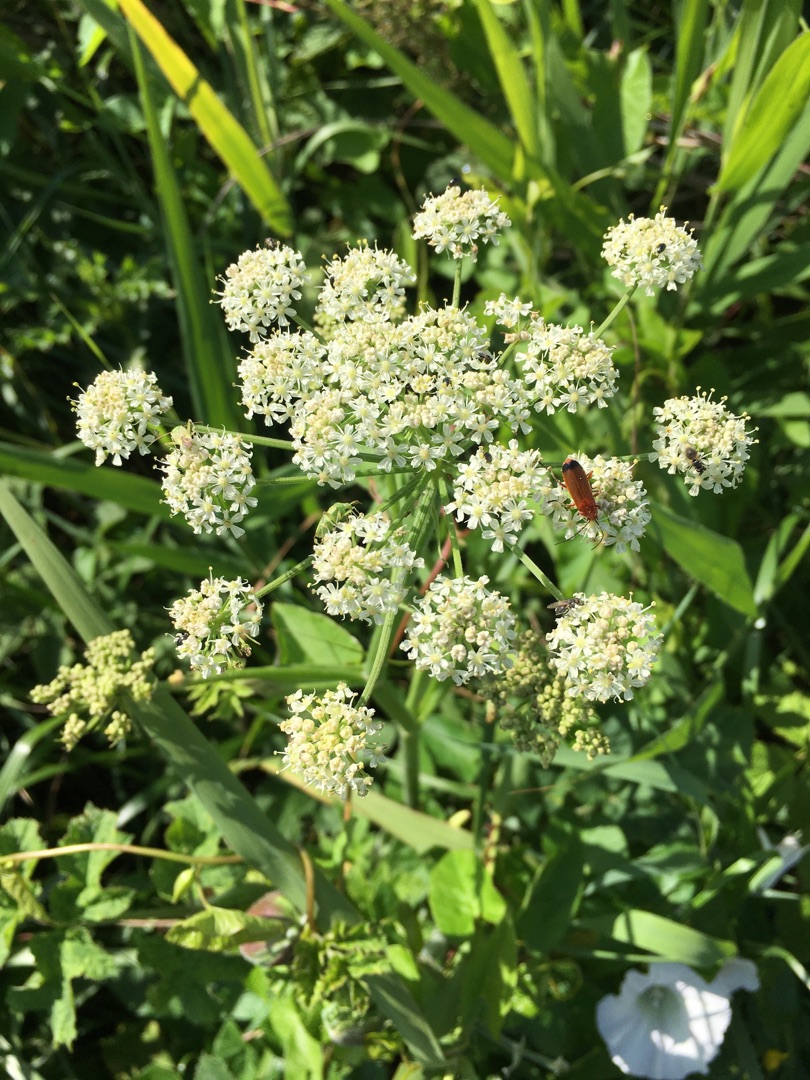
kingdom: Plantae
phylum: Tracheophyta
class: Magnoliopsida
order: Apiales
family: Apiaceae
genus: Heracleum
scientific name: Heracleum sphondylium
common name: Almindelig bjørneklo
